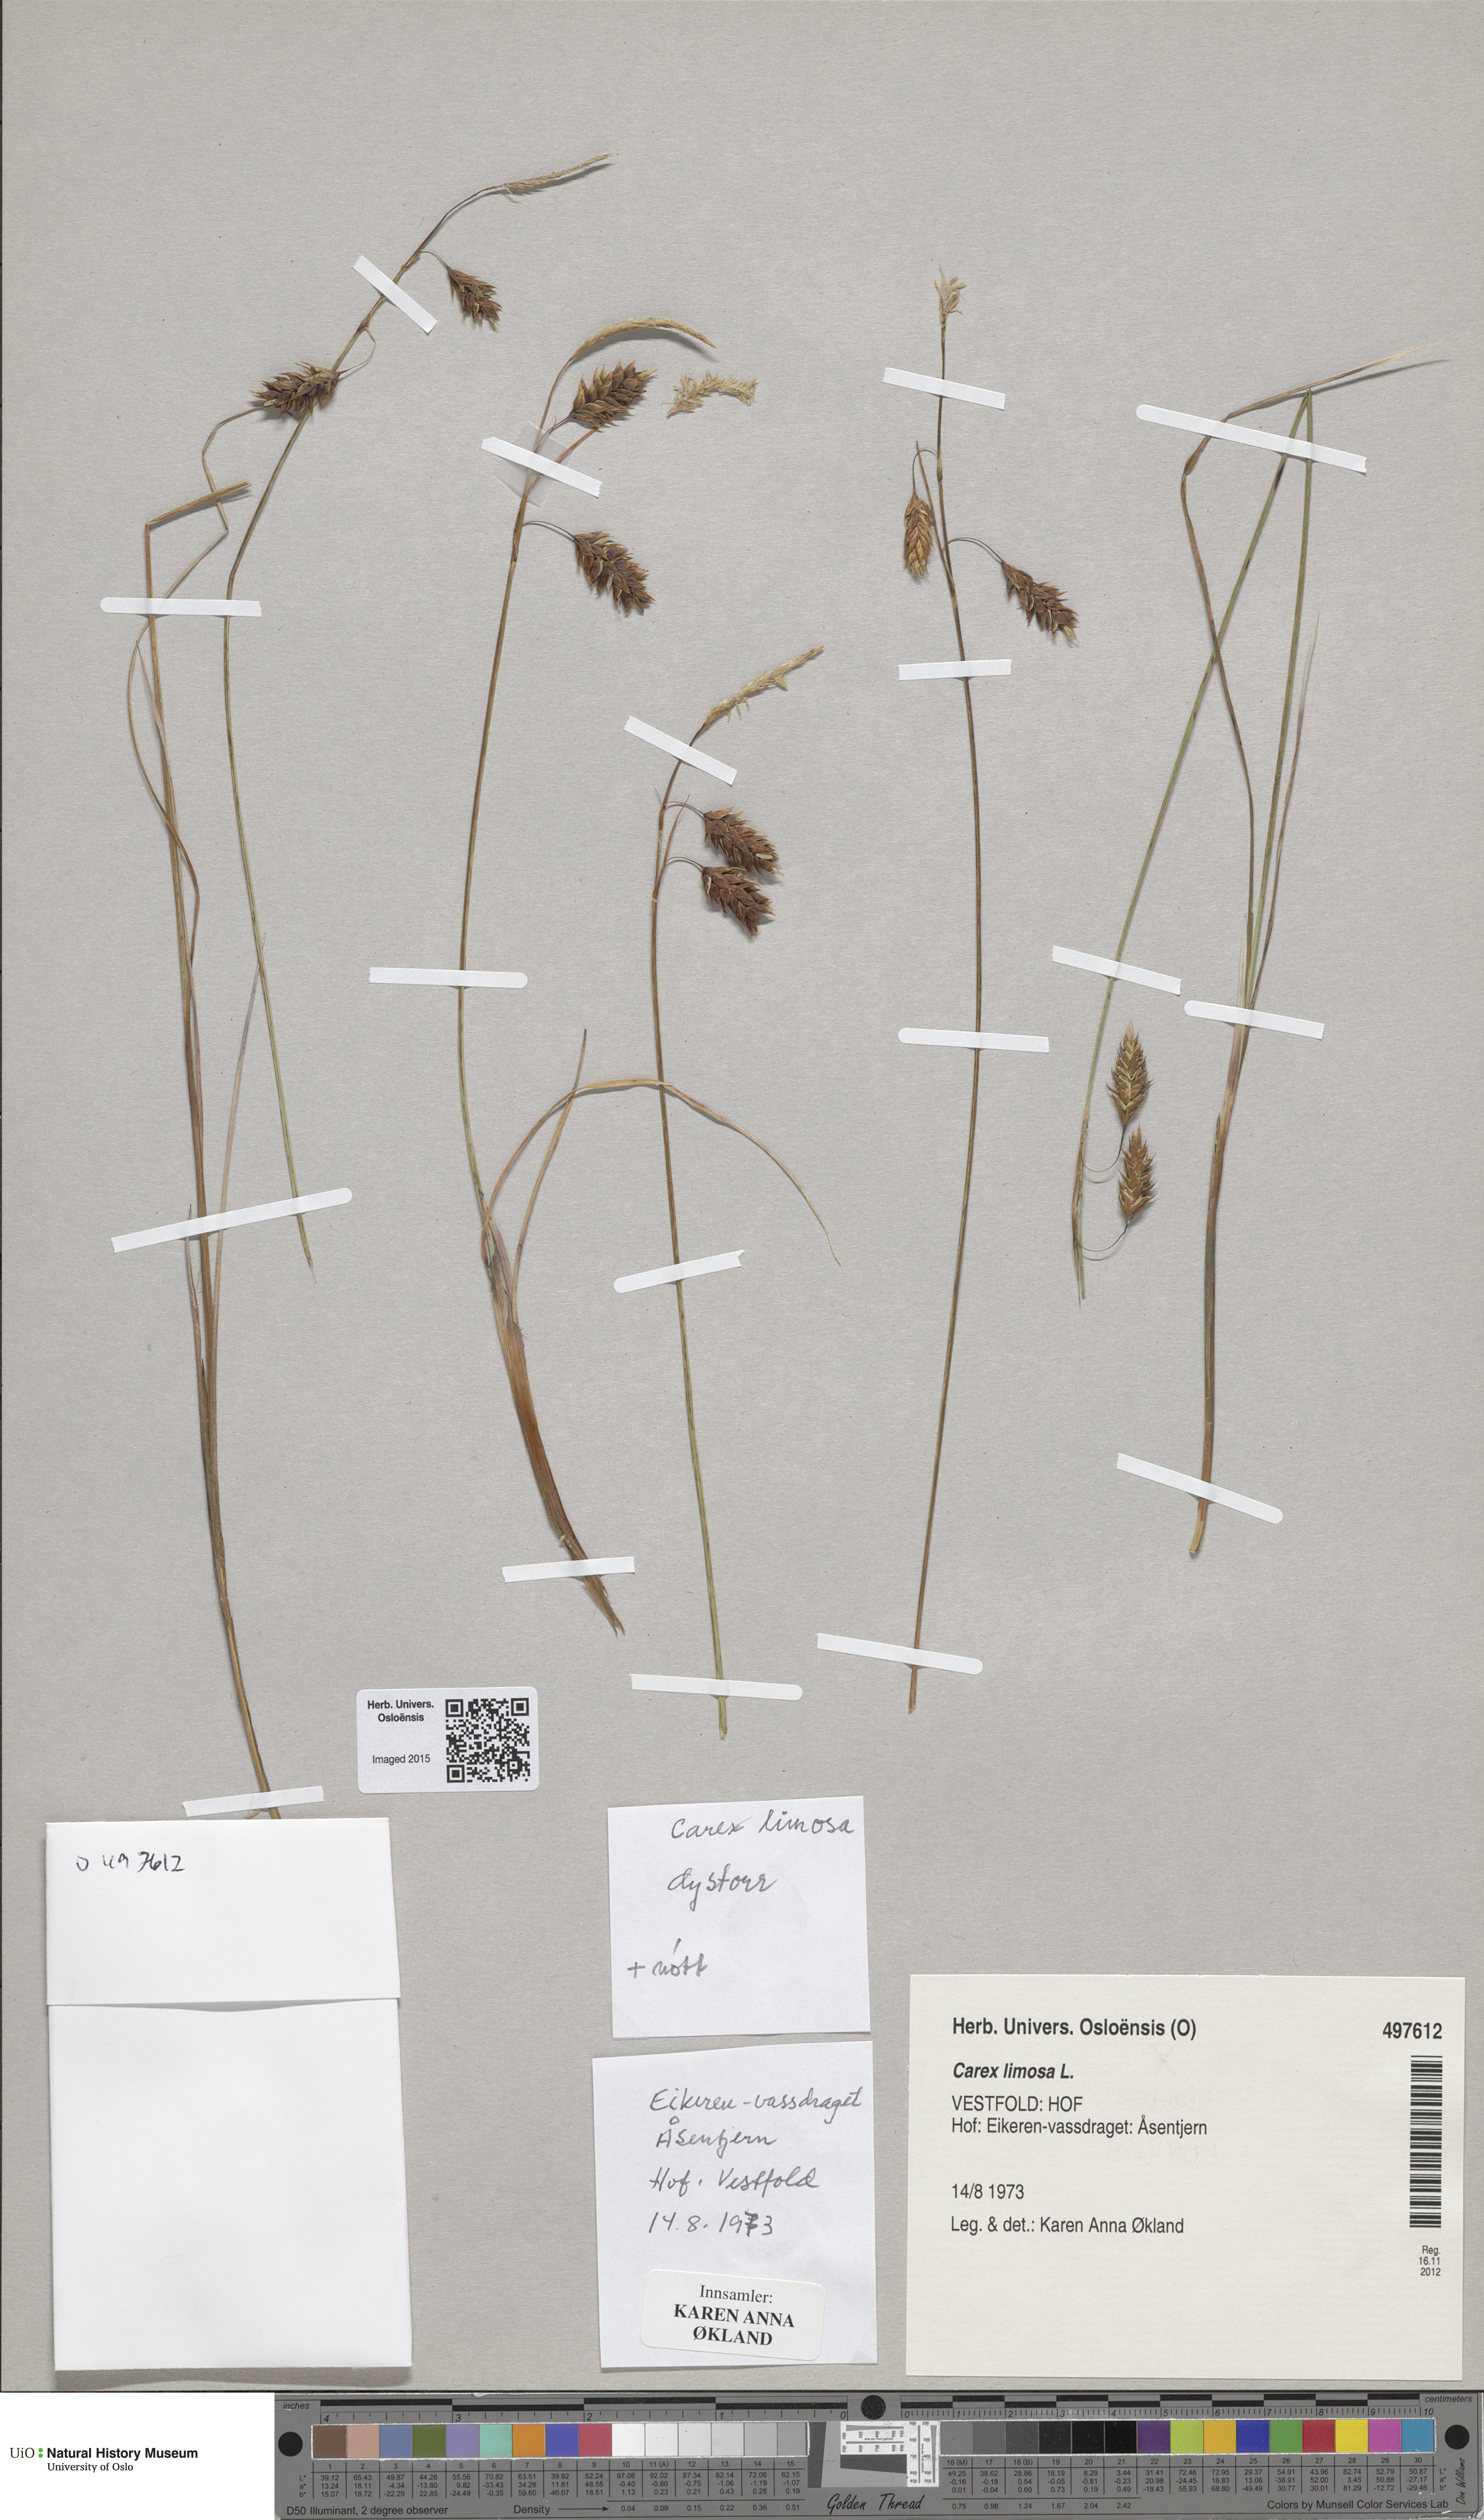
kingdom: Plantae
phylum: Tracheophyta
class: Liliopsida
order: Poales
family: Cyperaceae
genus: Carex
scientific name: Carex limosa
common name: Bog sedge
